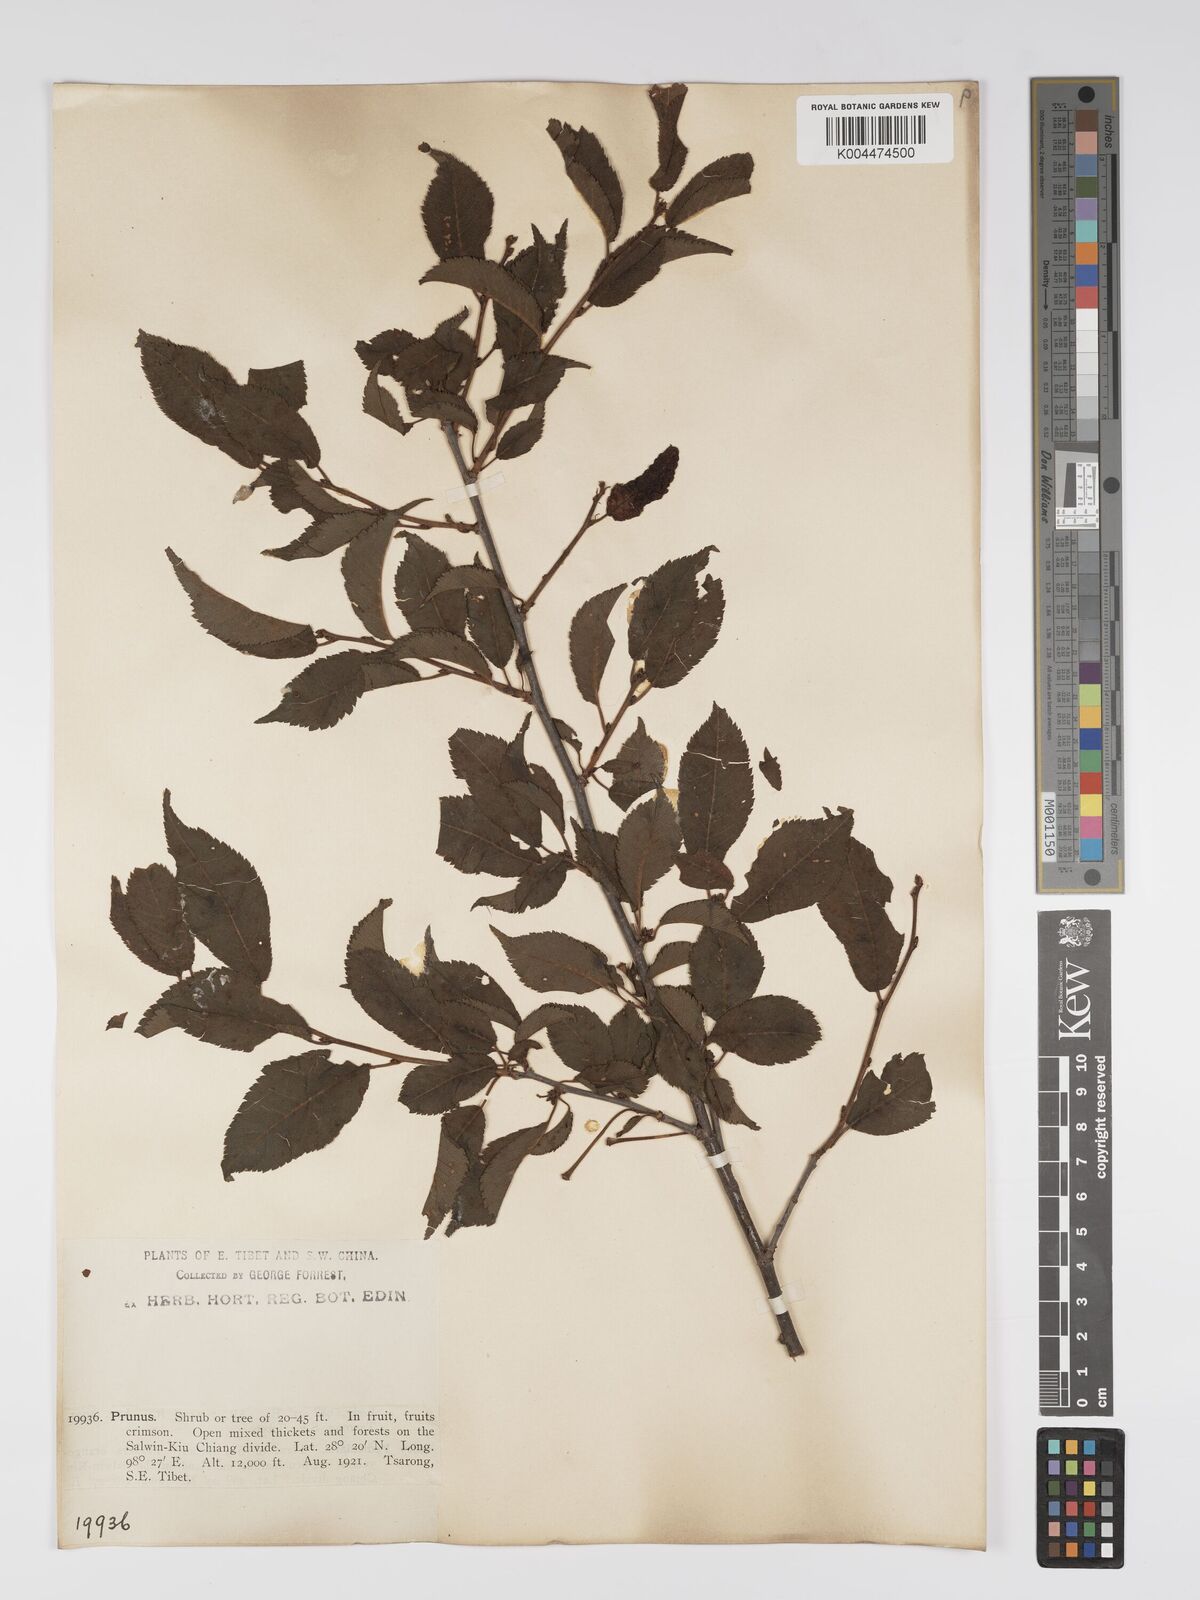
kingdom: Plantae
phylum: Tracheophyta
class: Magnoliopsida
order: Rosales
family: Rosaceae
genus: Prunus
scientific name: Prunus
